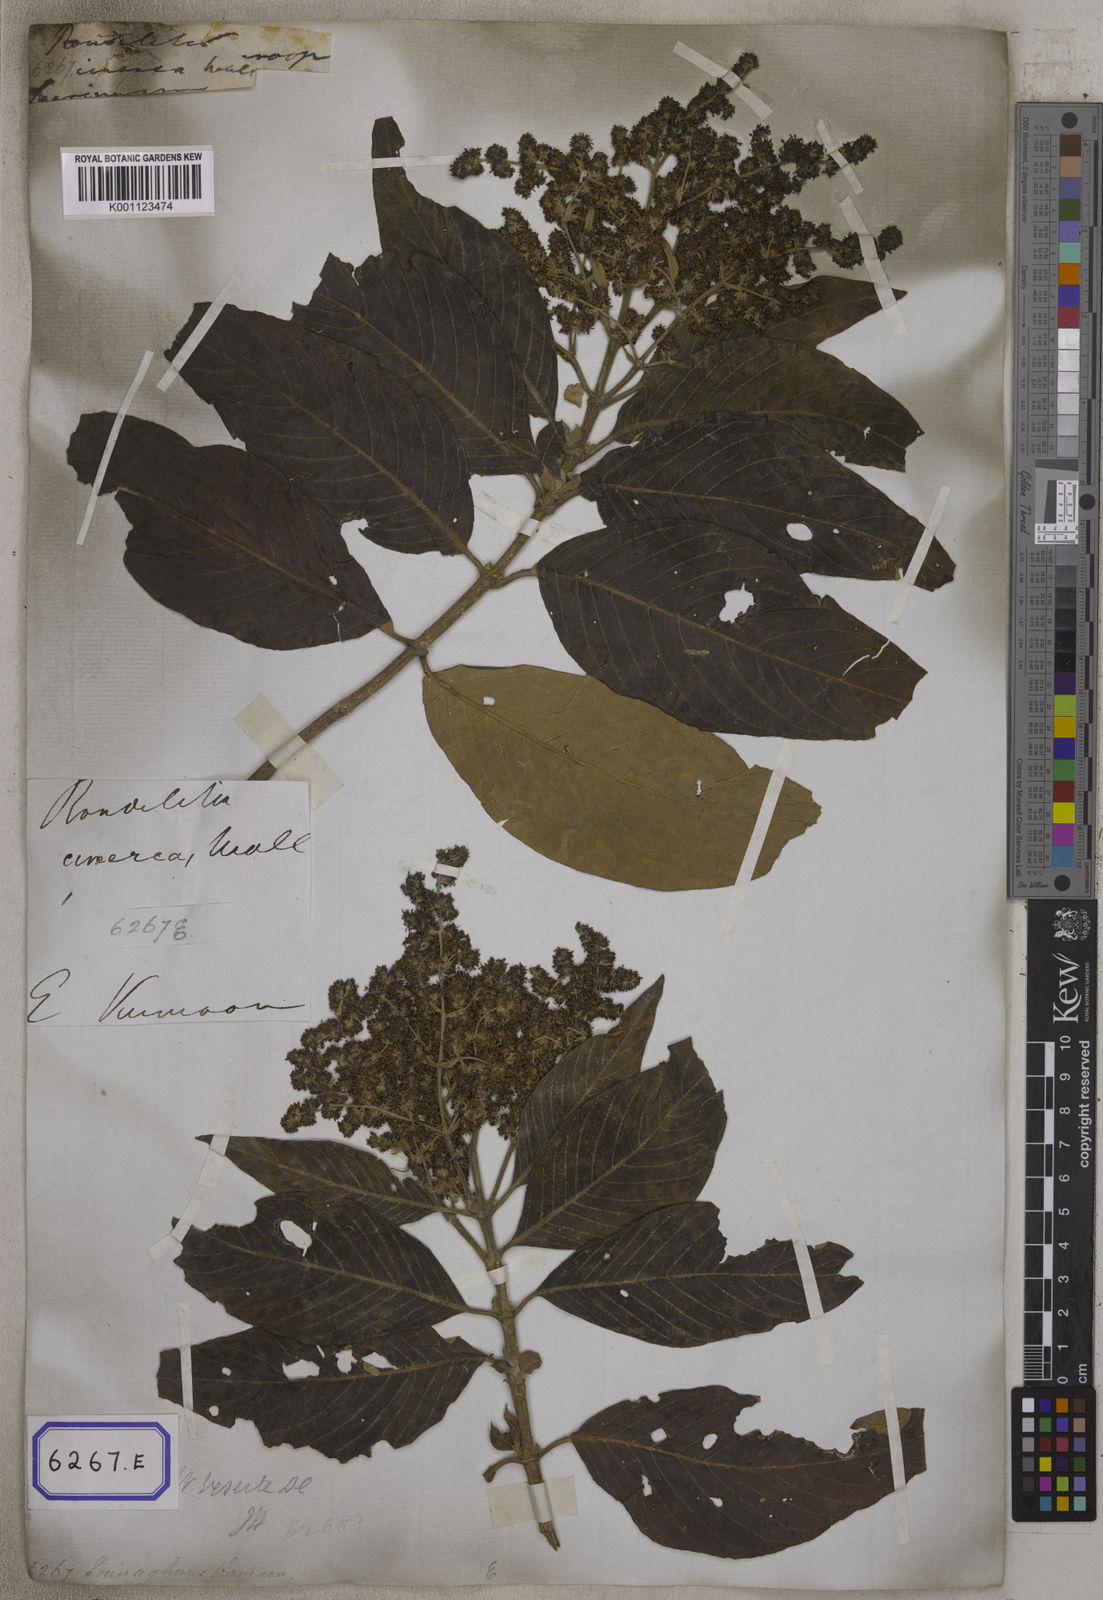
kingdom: Plantae
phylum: Tracheophyta
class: Magnoliopsida
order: Gentianales
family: Rubiaceae
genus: Wendlandia
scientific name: Wendlandia heynei
